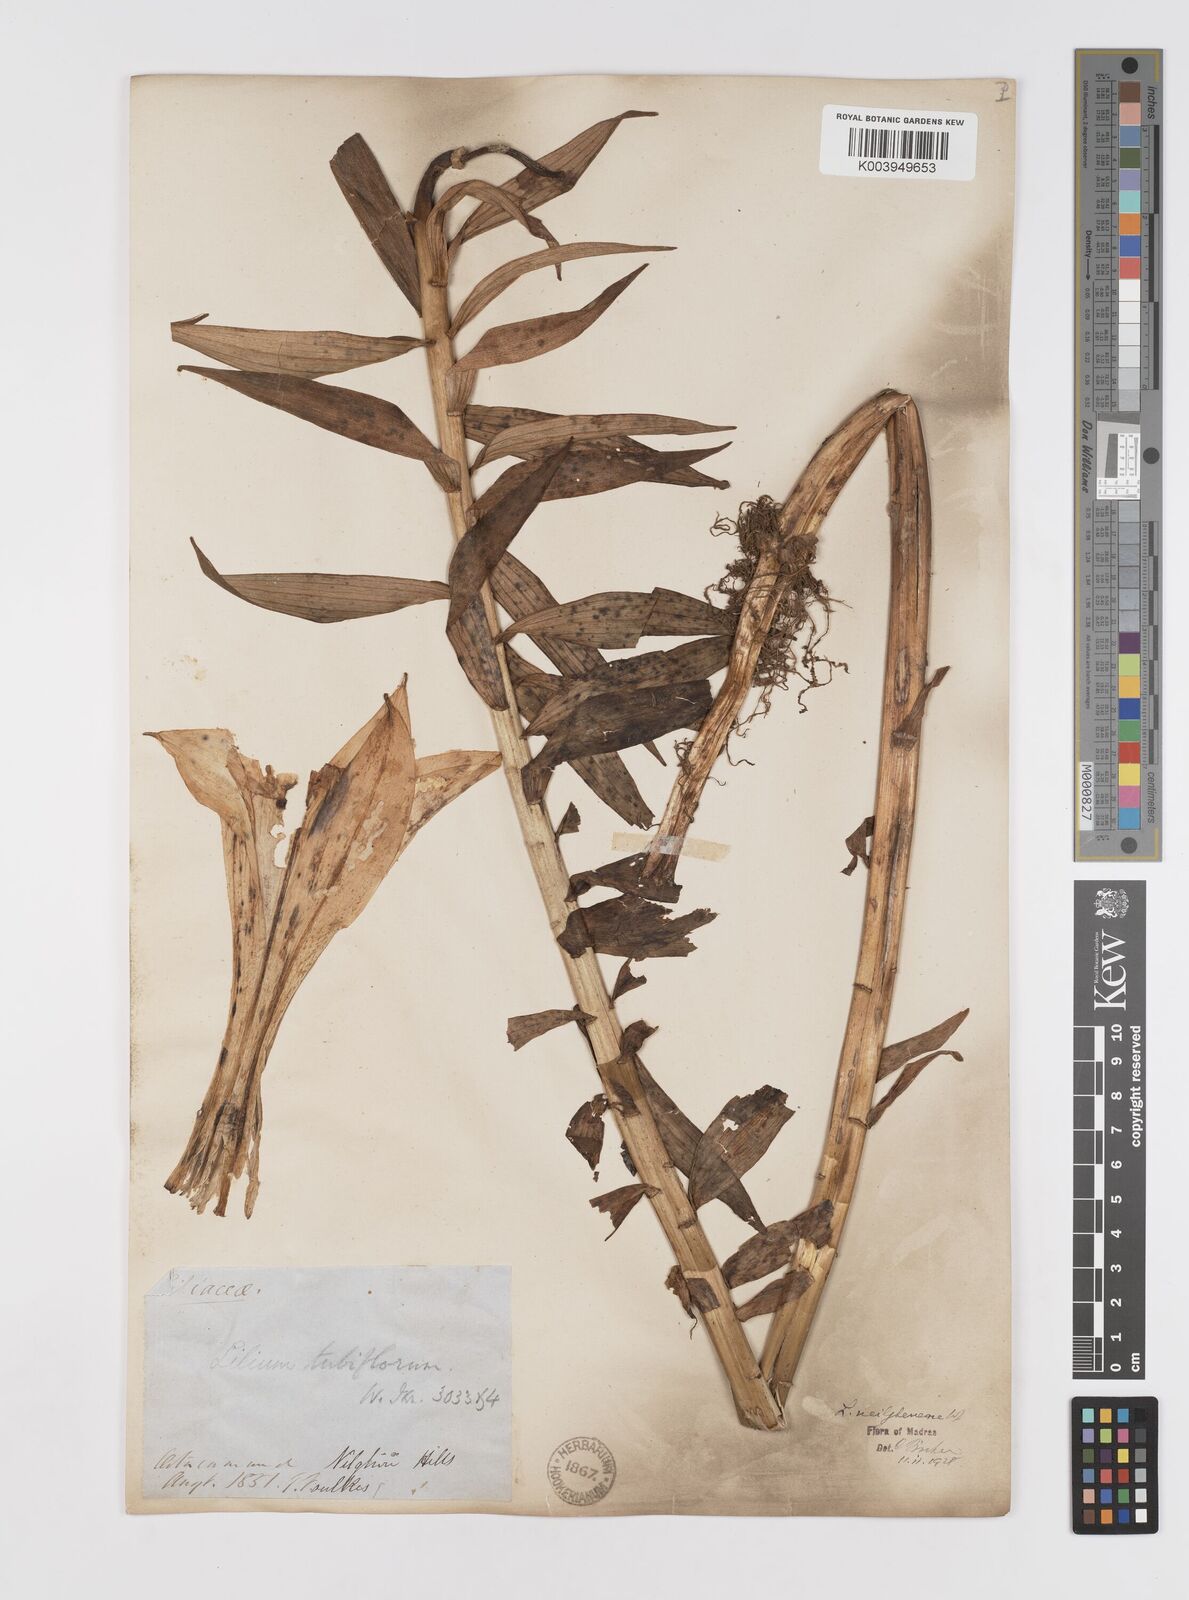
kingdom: Plantae
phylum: Tracheophyta
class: Liliopsida
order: Liliales
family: Liliaceae
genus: Lilium
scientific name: Lilium wallichianum
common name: Wallich's lily
